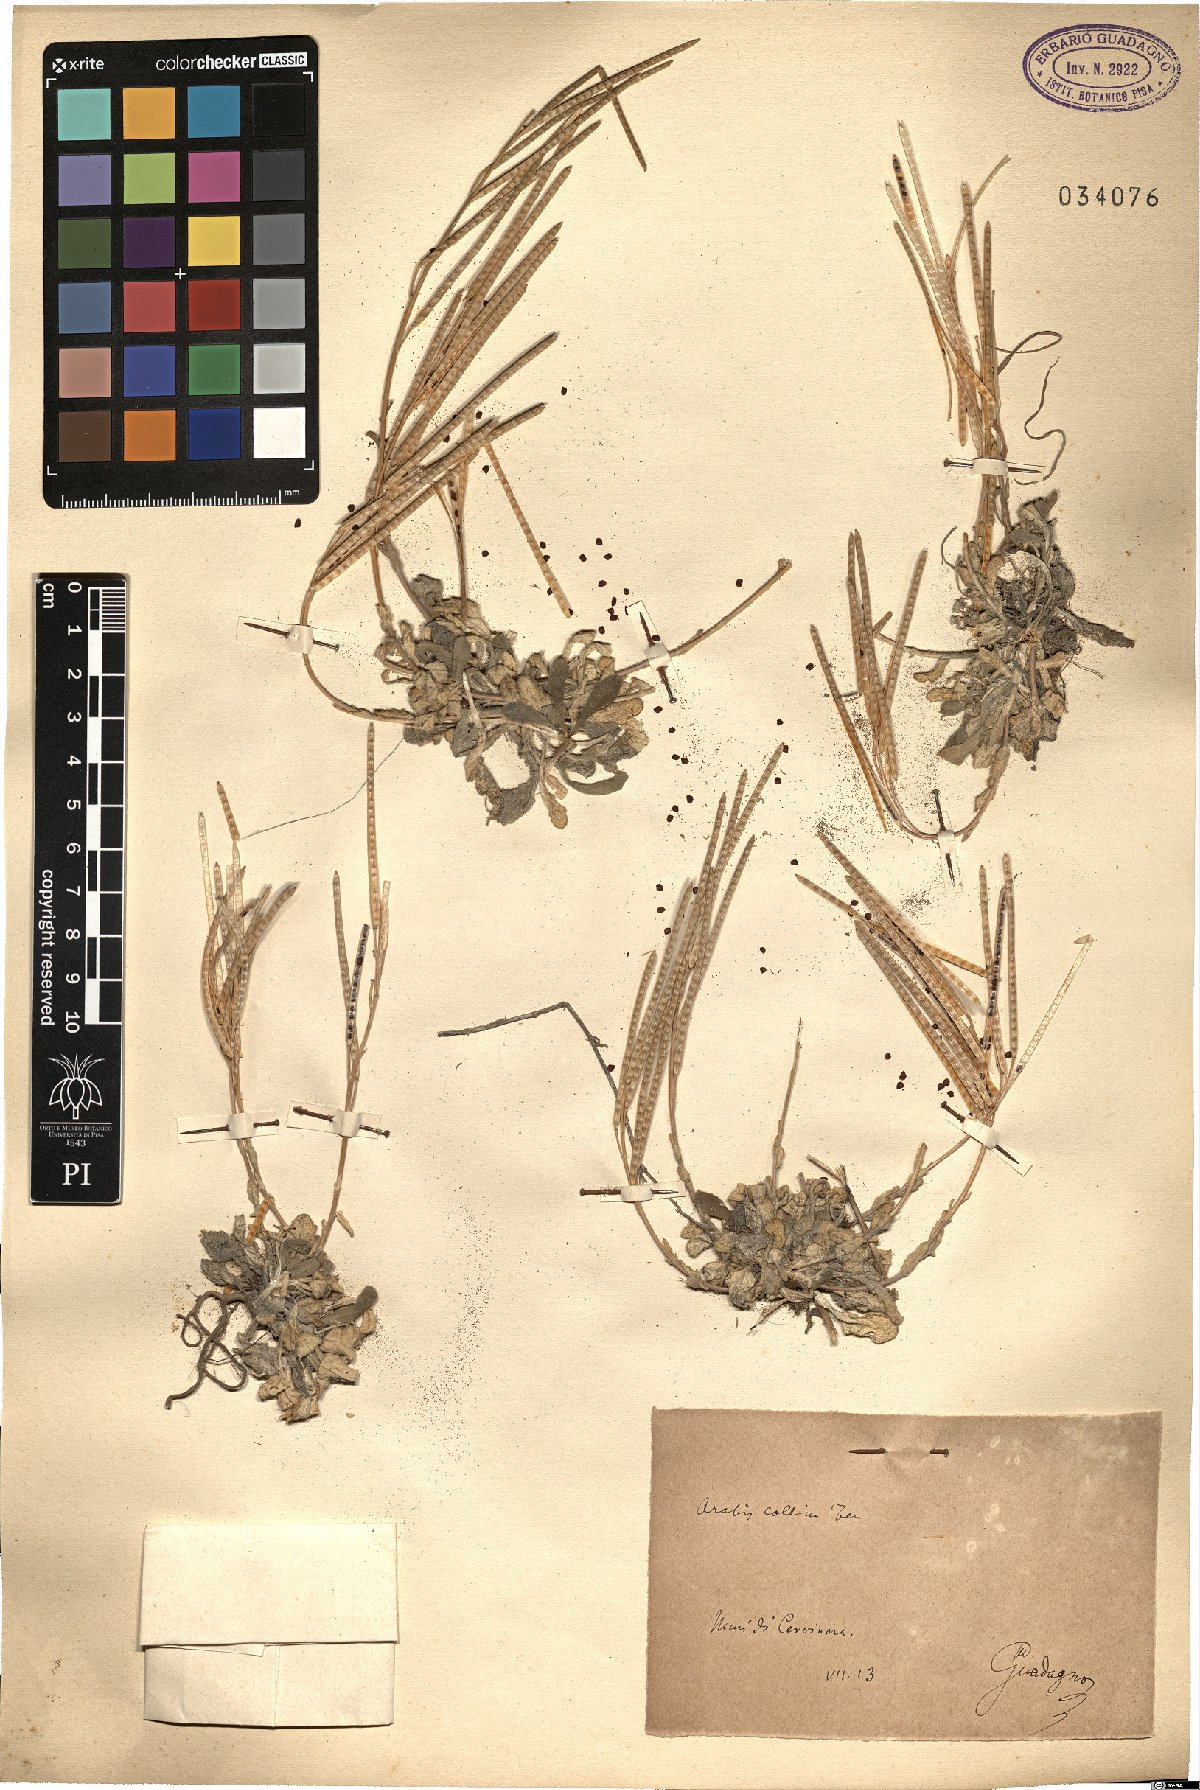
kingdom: Plantae
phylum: Tracheophyta
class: Magnoliopsida
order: Brassicales
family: Brassicaceae
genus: Arabis
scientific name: Arabis collina
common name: Rosy cress
